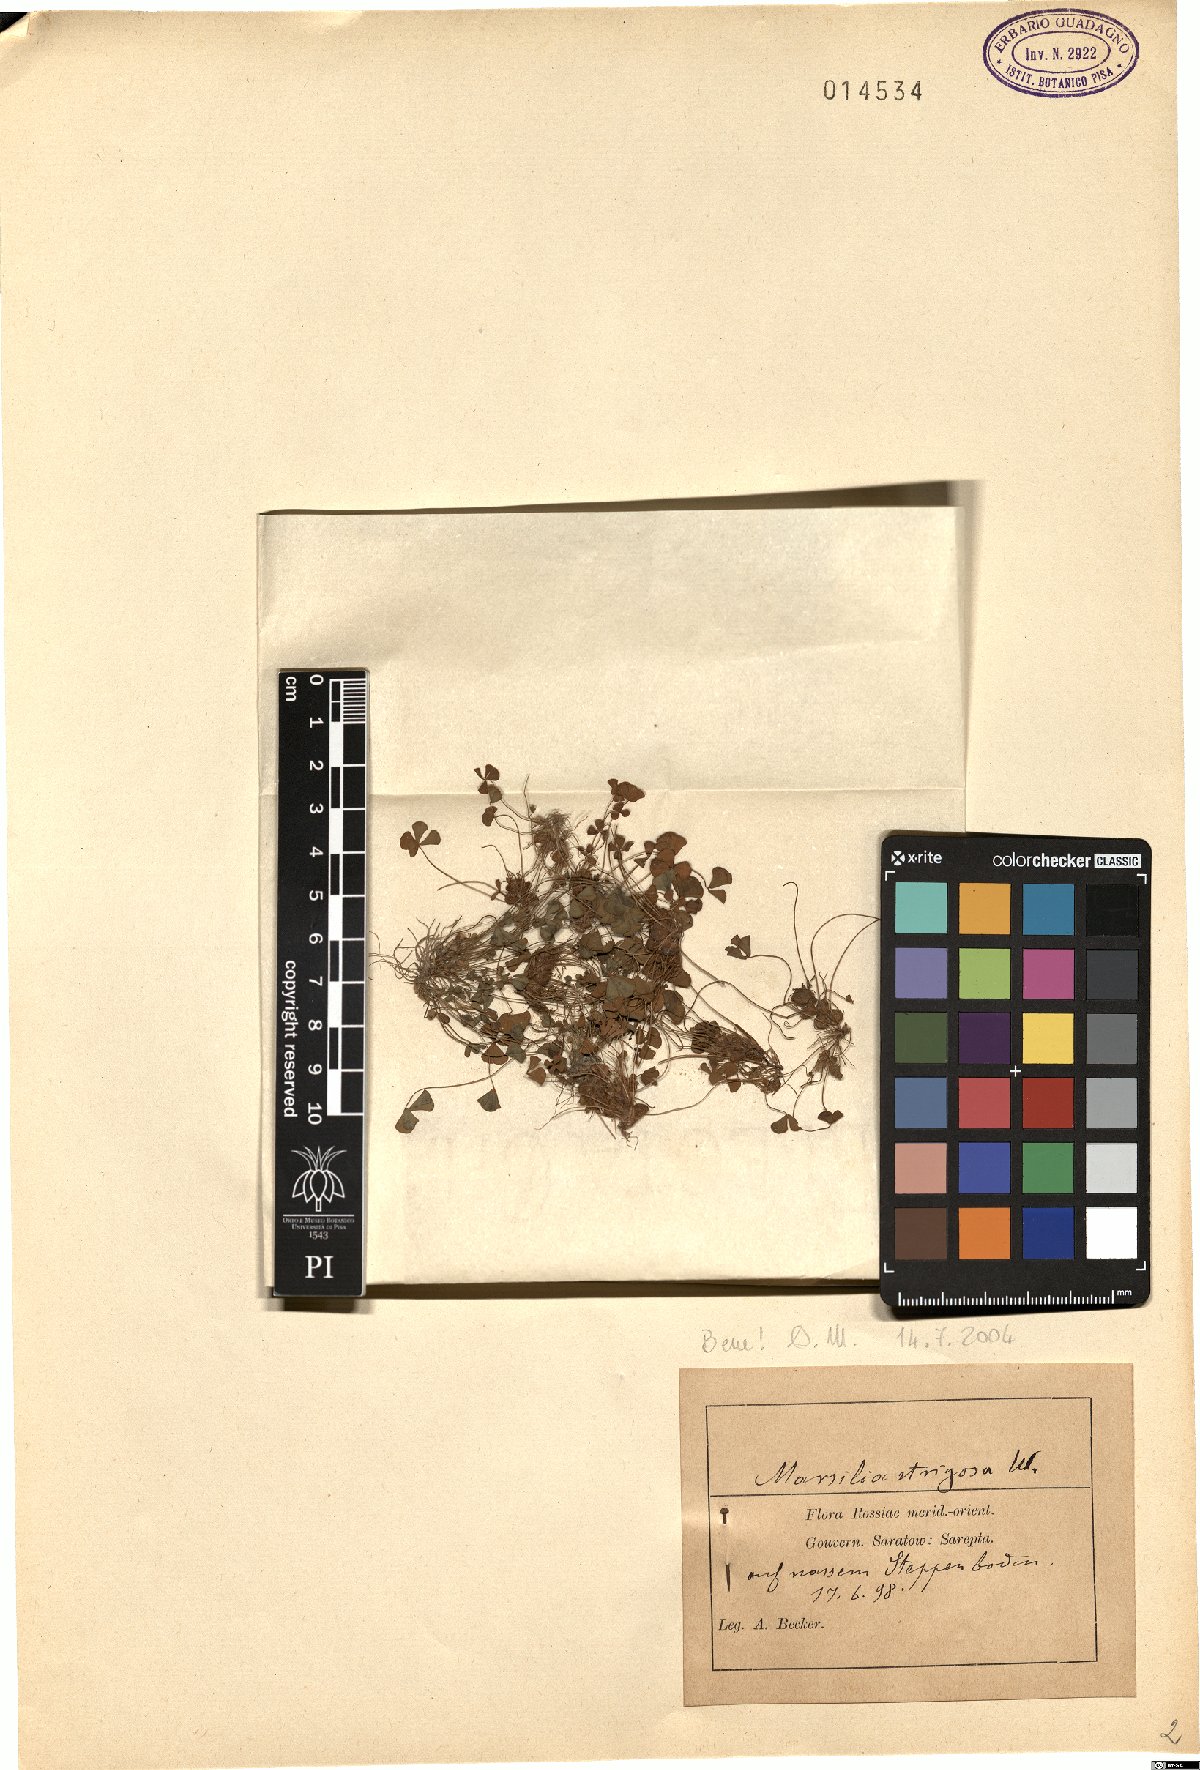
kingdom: Plantae
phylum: Tracheophyta
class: Polypodiopsida
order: Salviniales
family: Marsileaceae
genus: Marsilea
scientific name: Marsilea strigosa
